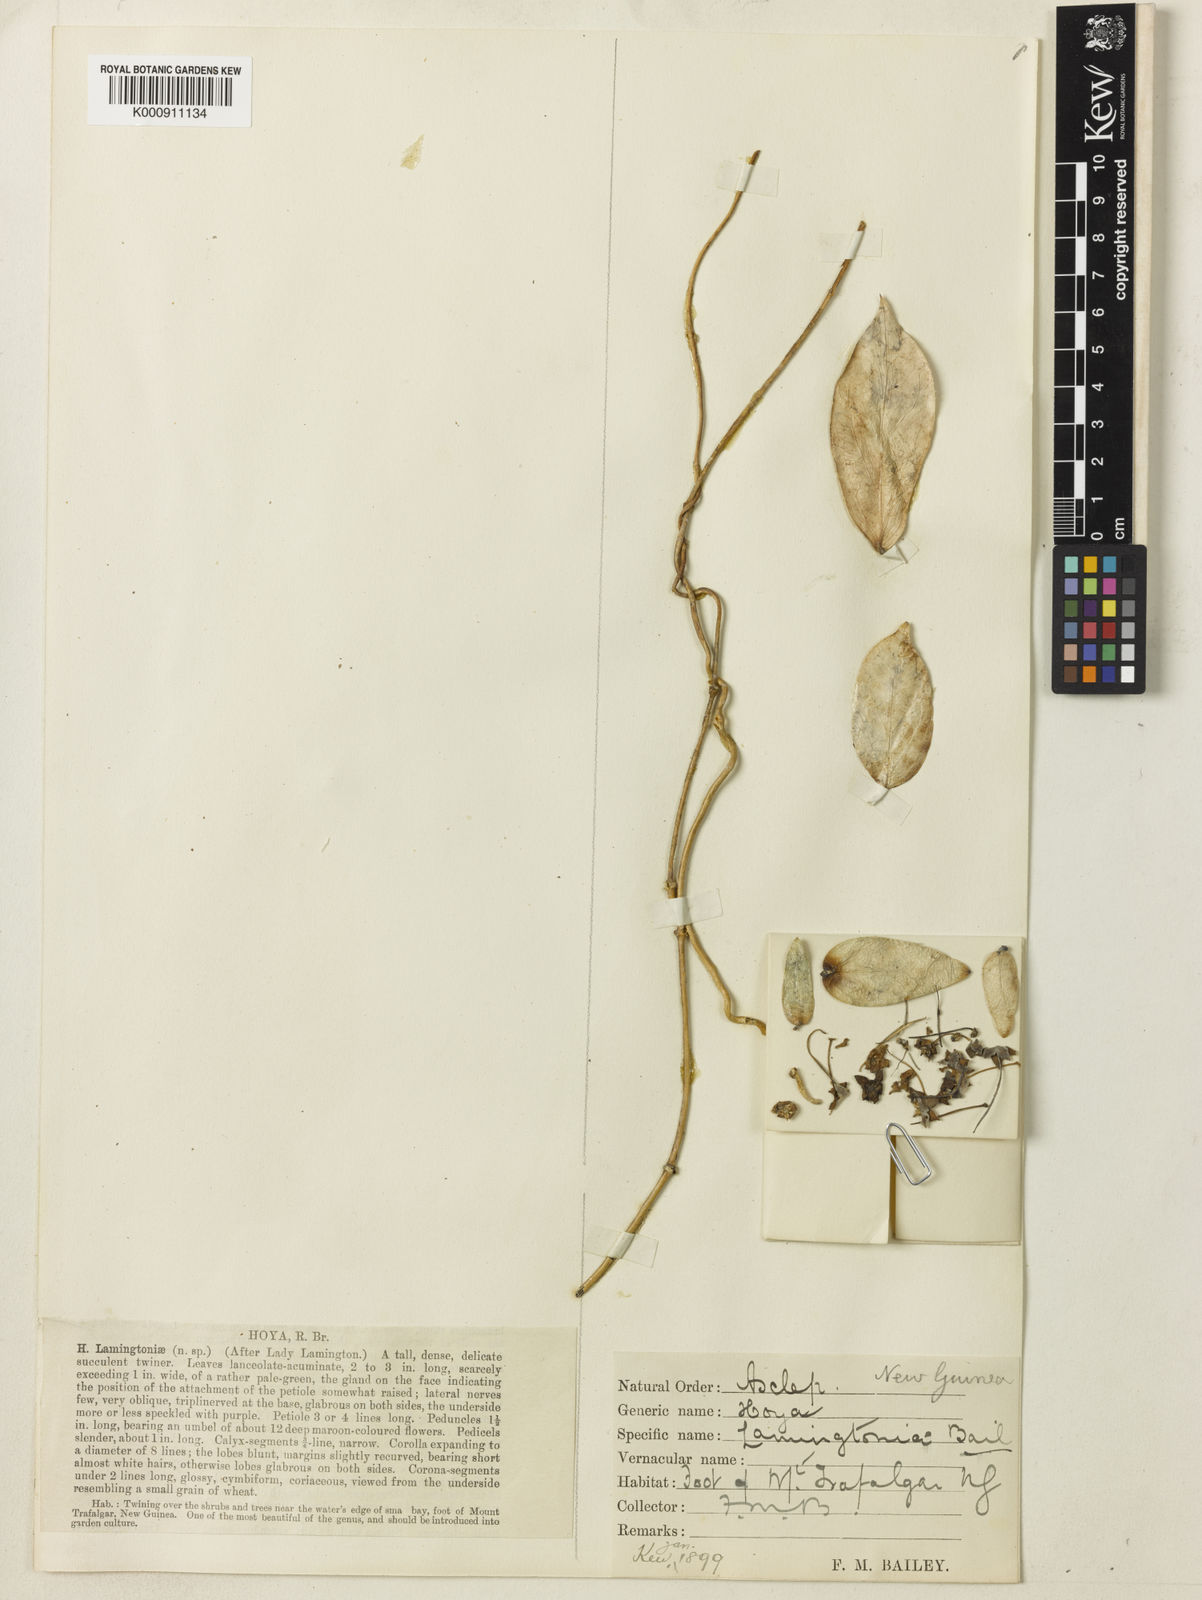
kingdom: Plantae
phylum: Tracheophyta
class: Magnoliopsida
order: Gentianales
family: Apocynaceae
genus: Hoya
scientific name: Hoya globulifera
